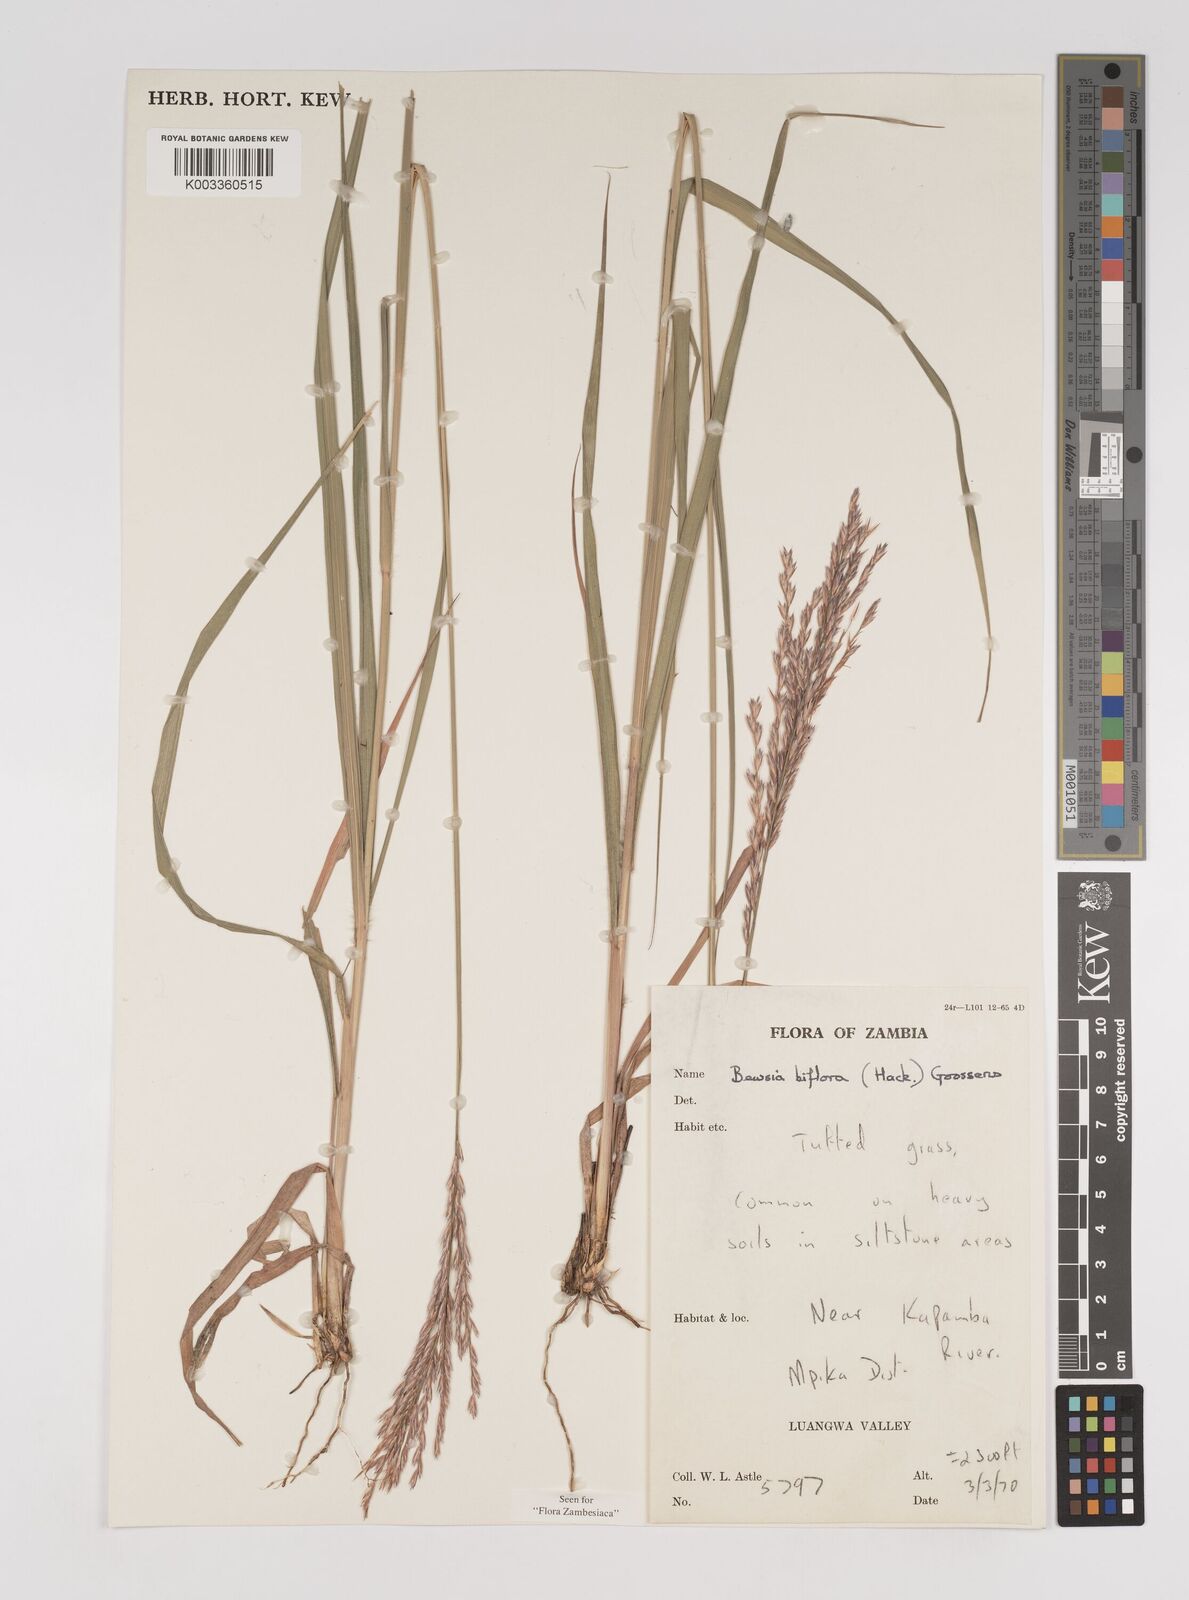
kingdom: Plantae
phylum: Tracheophyta
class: Liliopsida
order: Poales
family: Poaceae
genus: Bewsia
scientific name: Bewsia biflora
